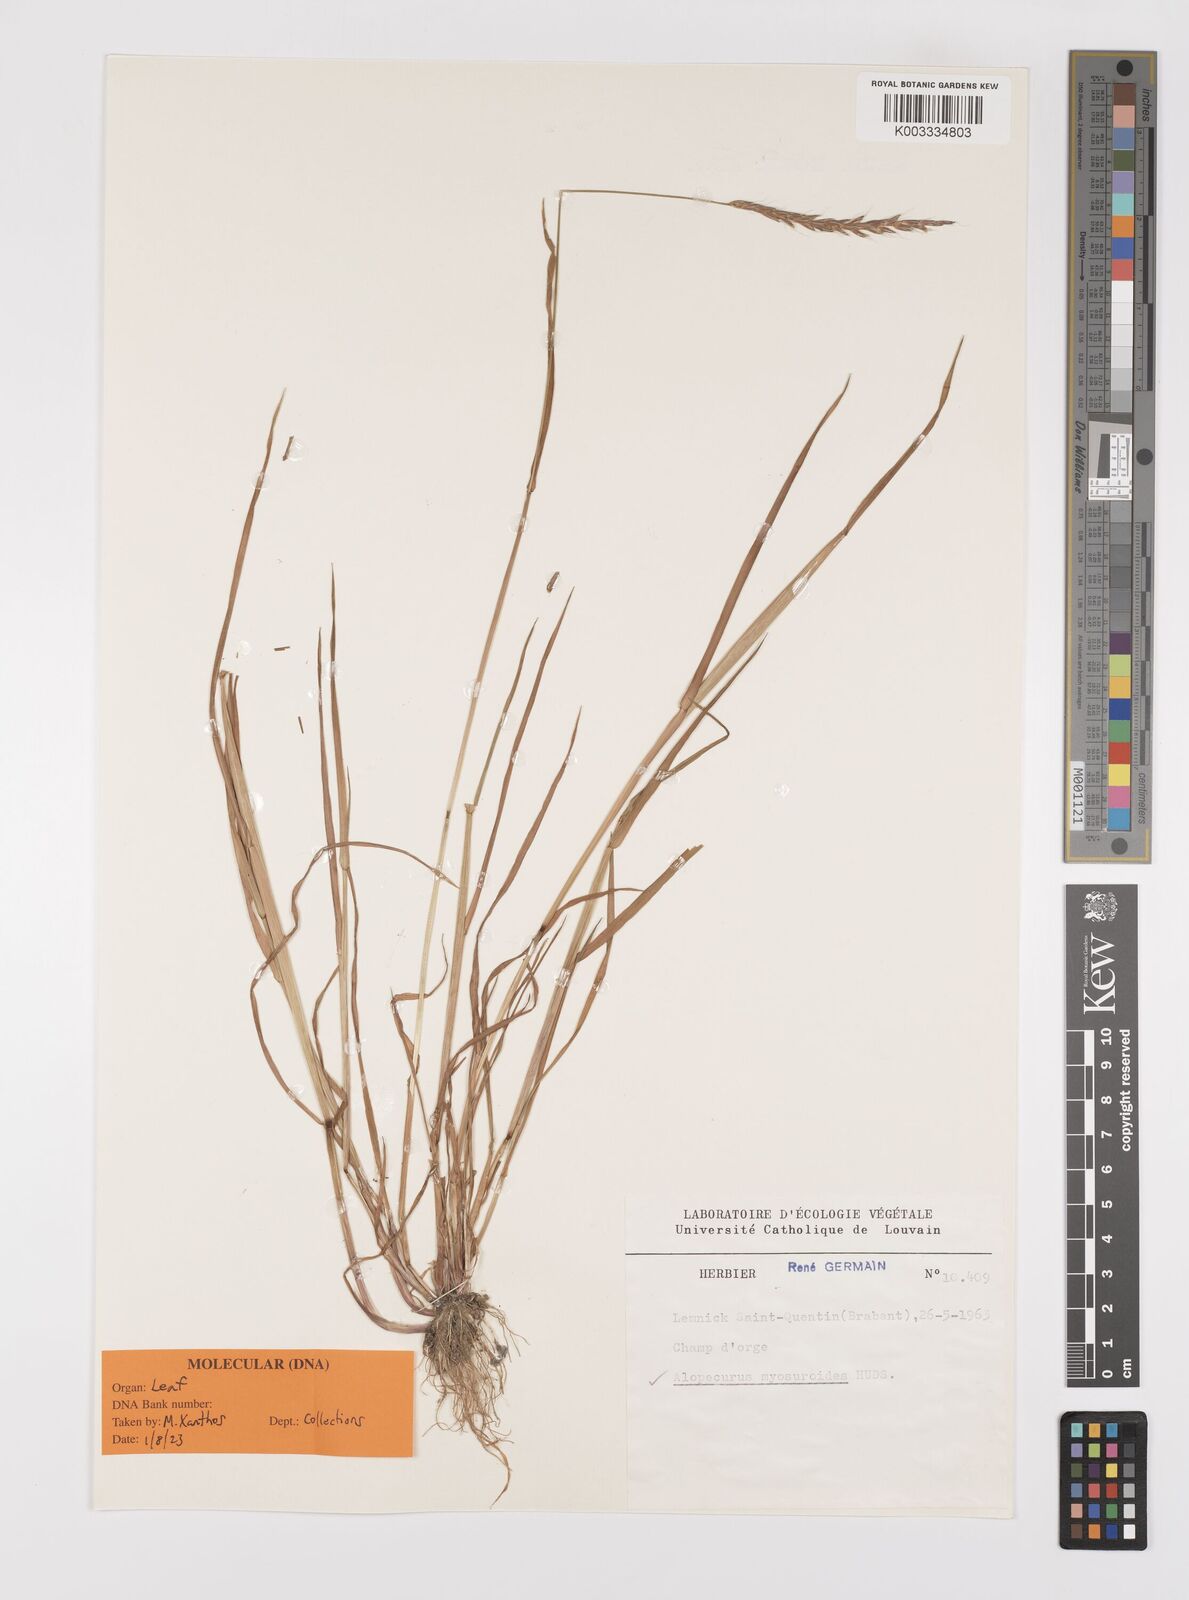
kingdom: Plantae
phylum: Tracheophyta
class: Liliopsida
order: Poales
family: Poaceae
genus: Alopecurus
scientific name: Alopecurus myosuroides
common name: Black-grass
